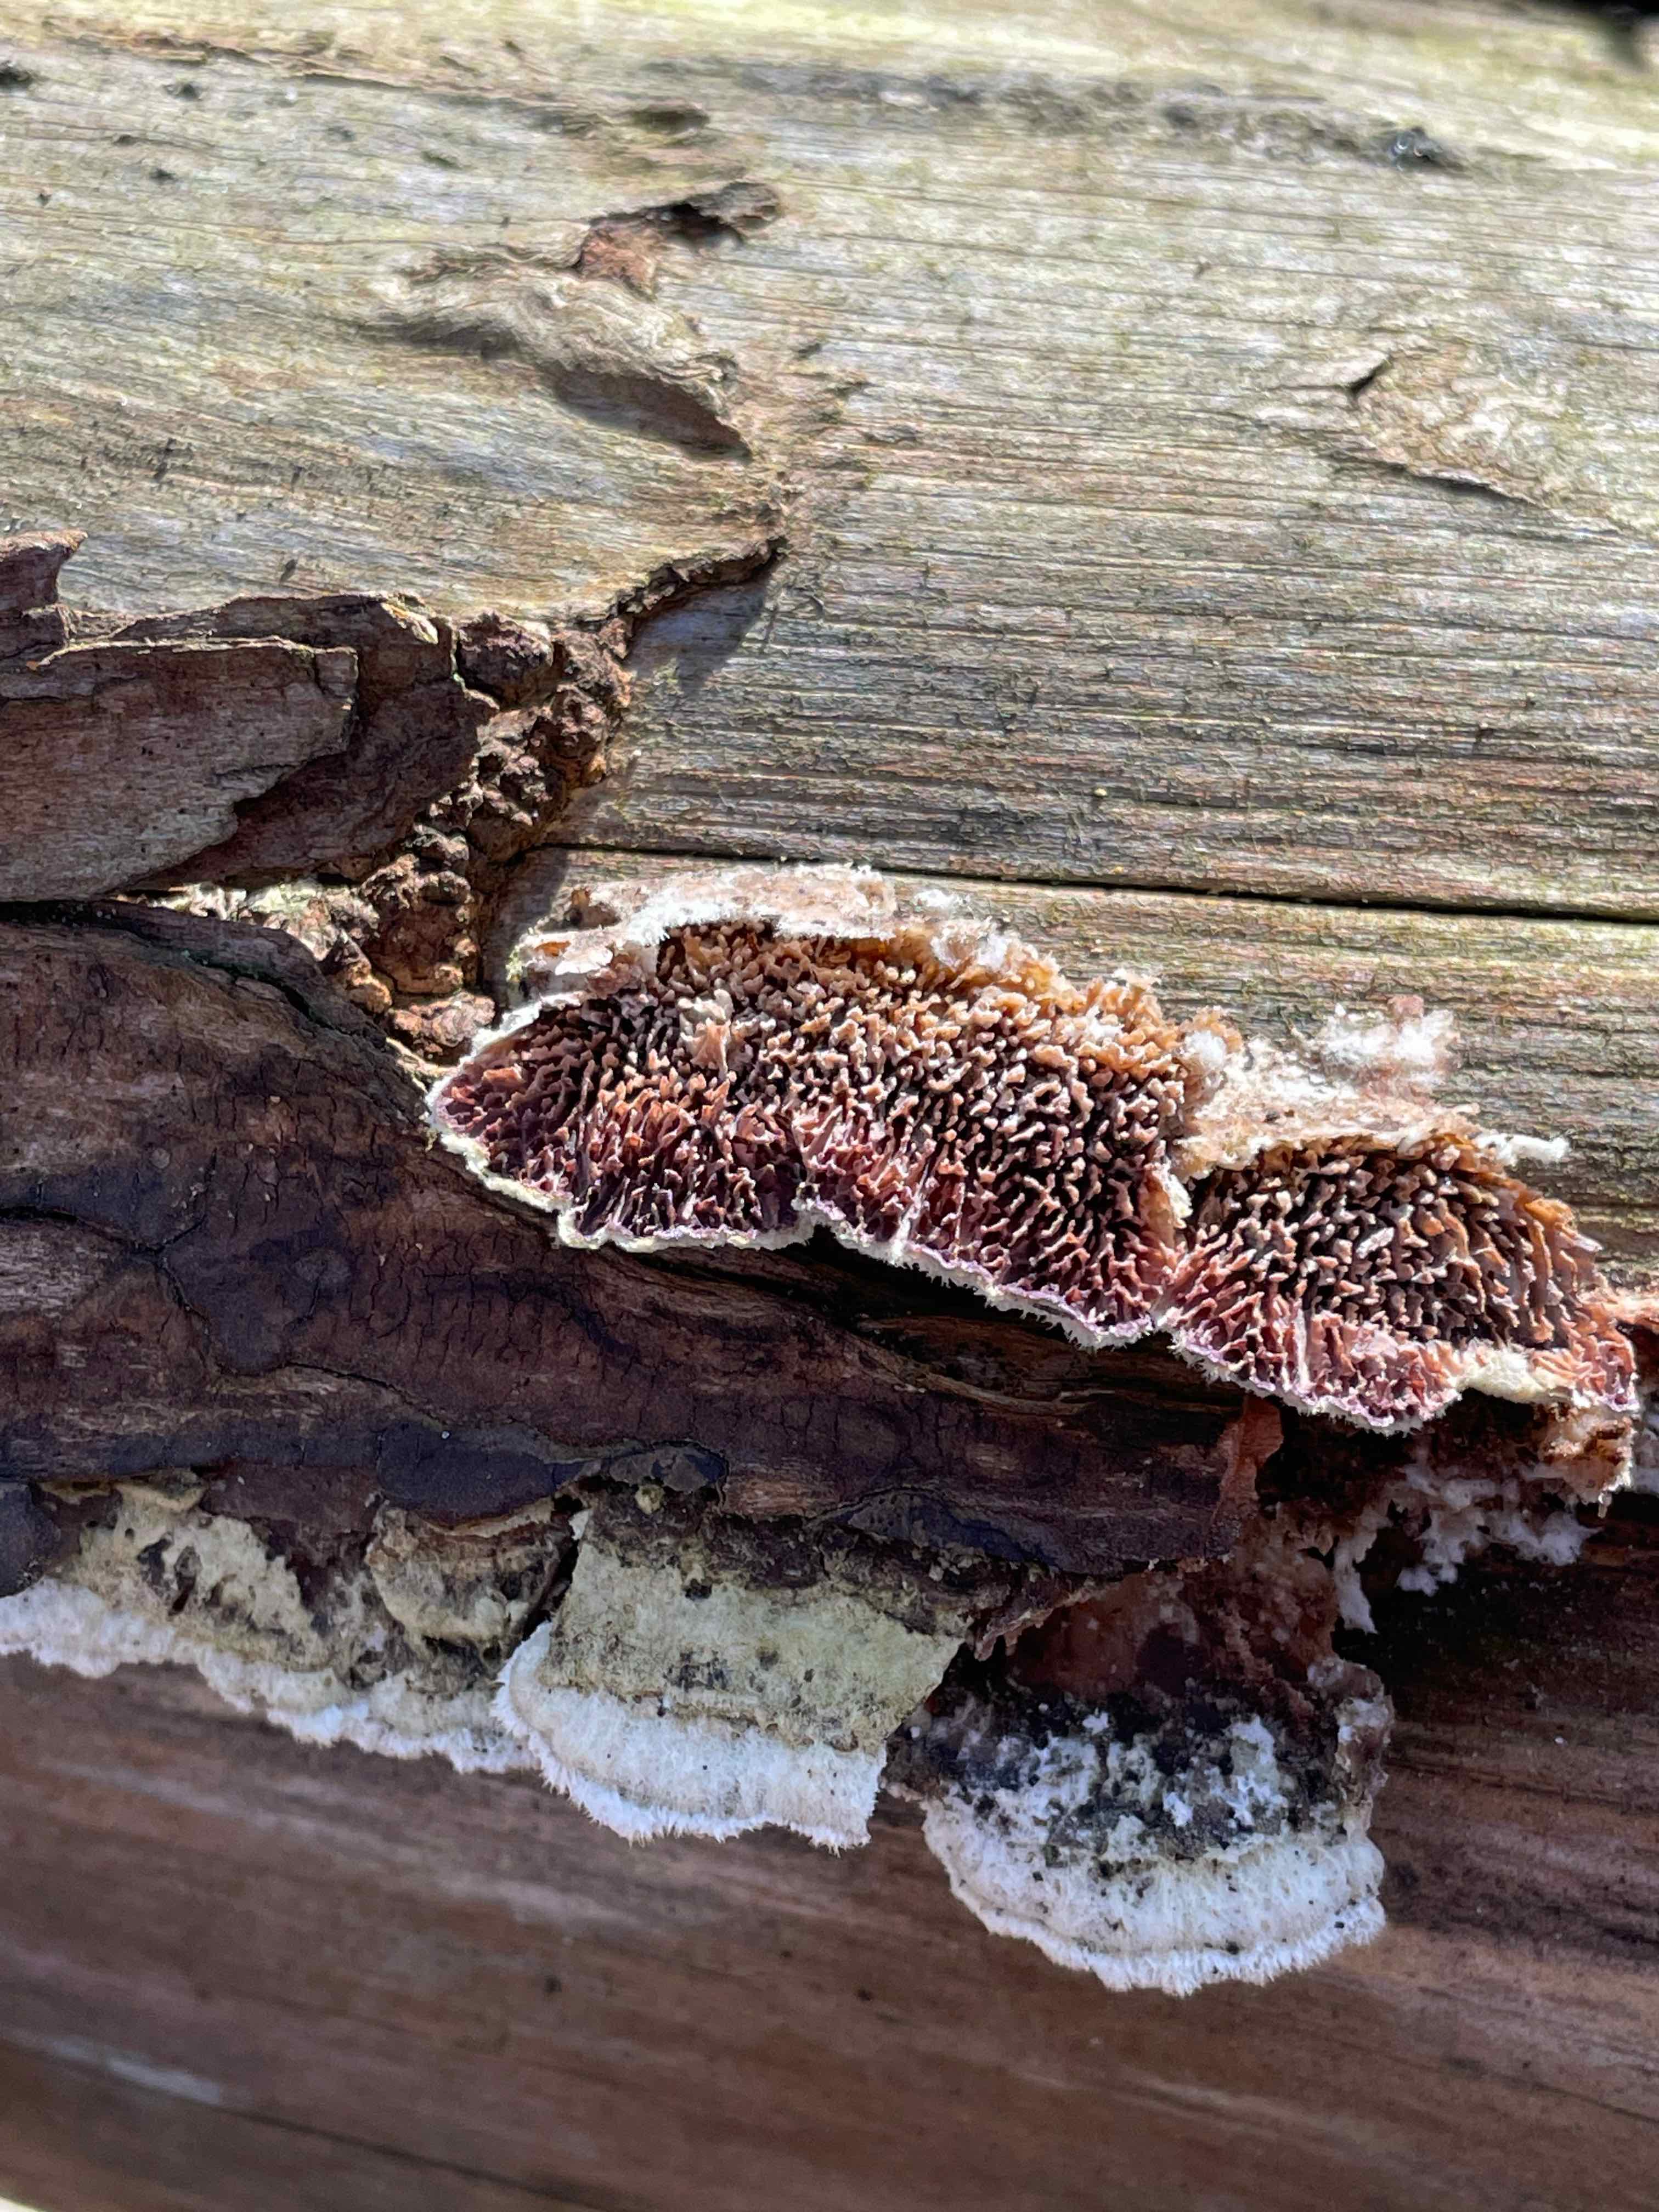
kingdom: Fungi
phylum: Basidiomycota
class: Agaricomycetes
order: Hymenochaetales
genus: Trichaptum
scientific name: Trichaptum fuscoviolaceum
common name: tandet violporesvamp
